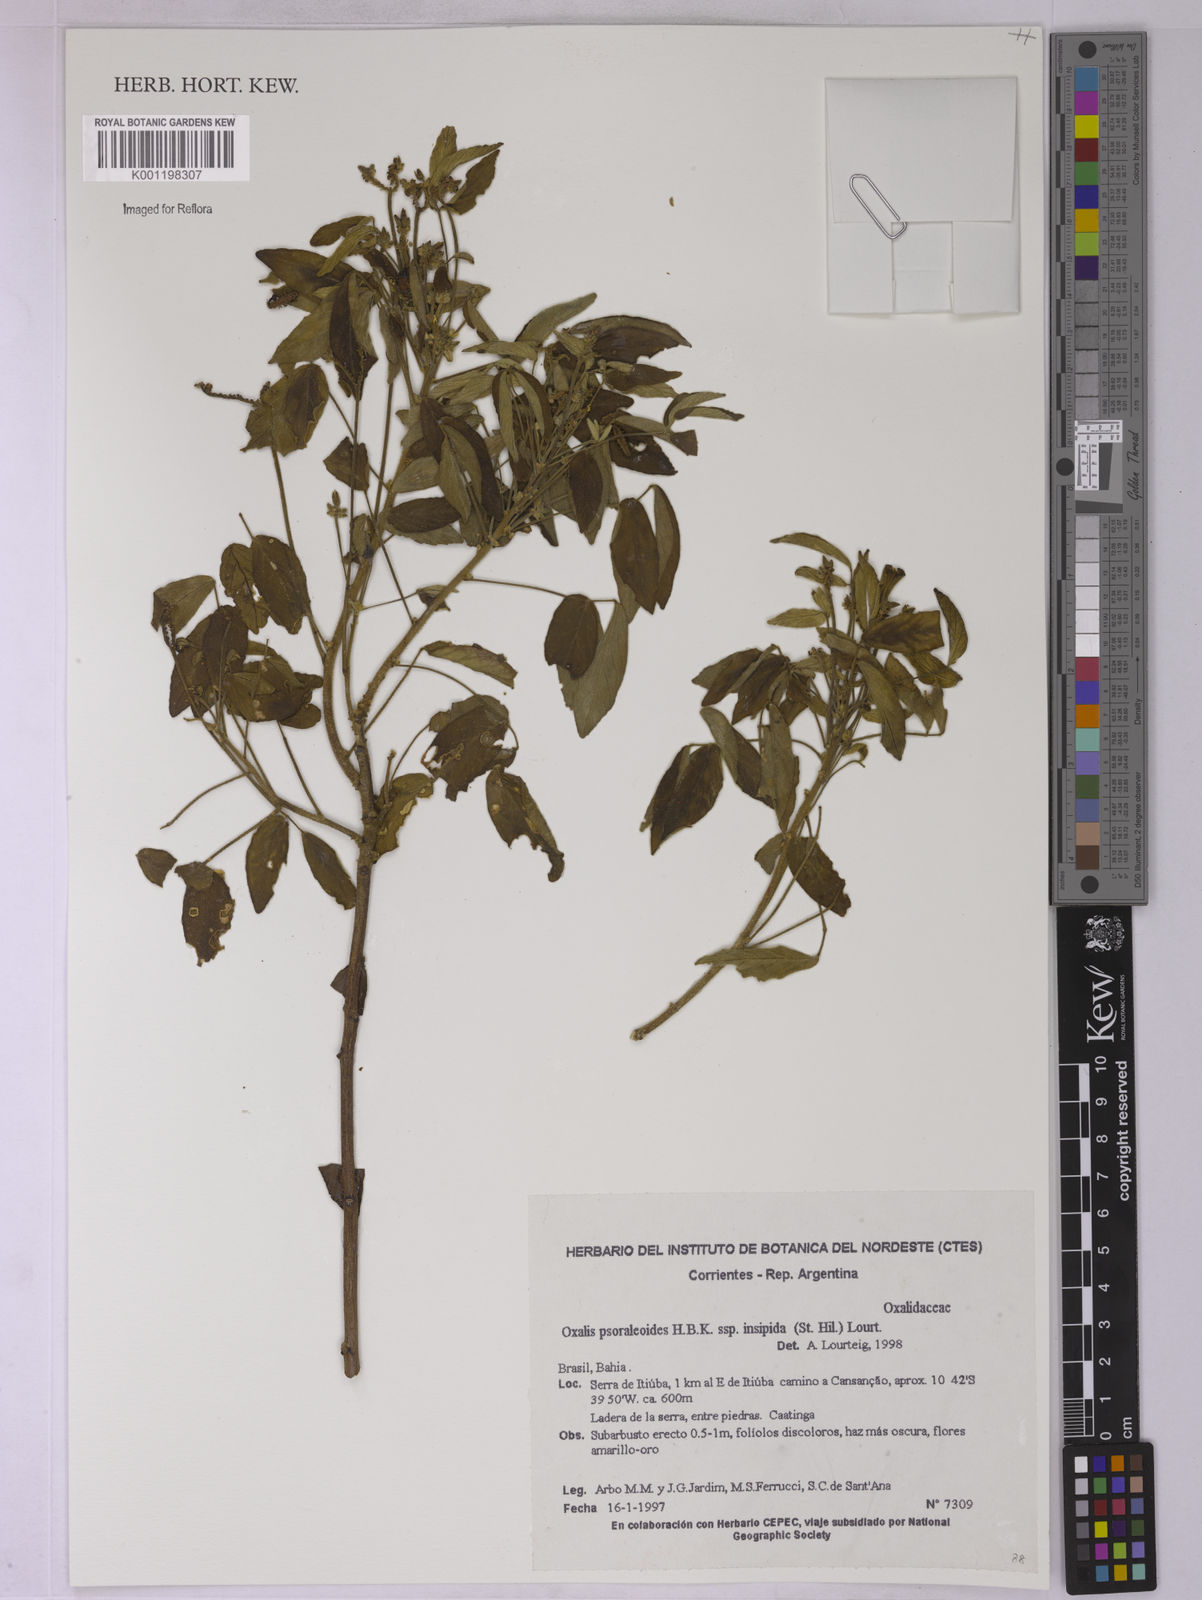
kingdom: Plantae
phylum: Tracheophyta
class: Magnoliopsida
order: Oxalidales
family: Oxalidaceae
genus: Oxalis
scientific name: Oxalis psoraleoides
